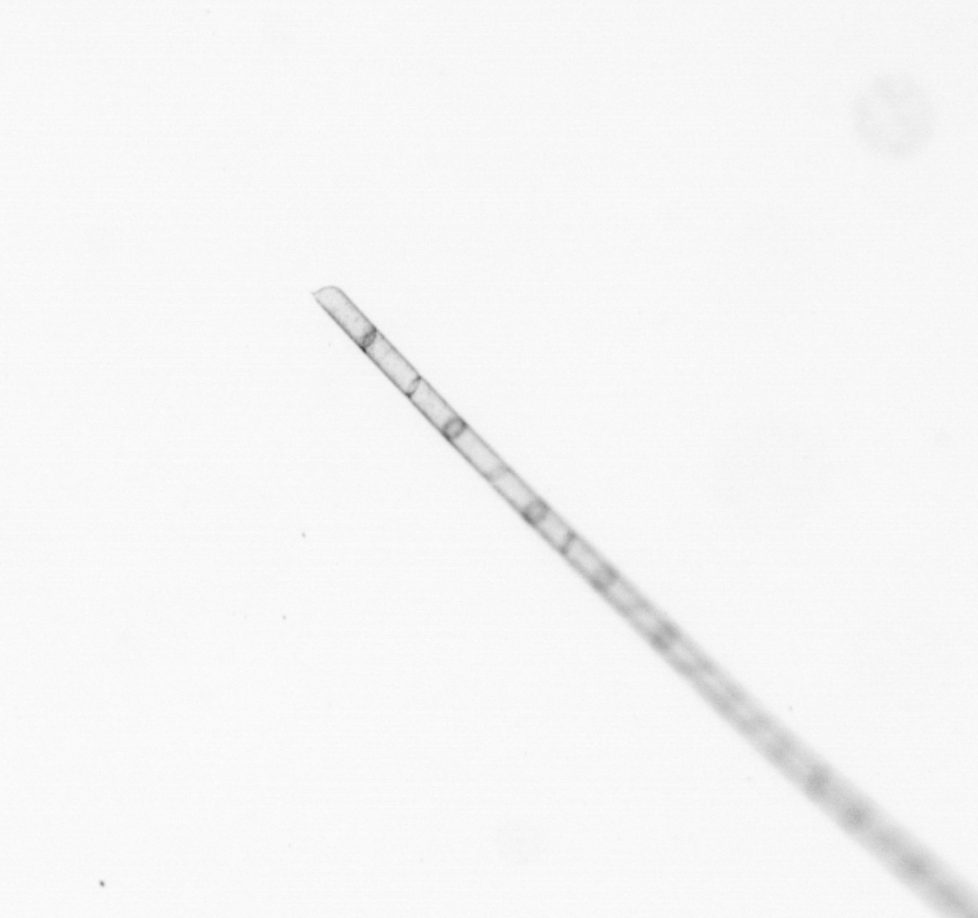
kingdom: Chromista
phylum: Ochrophyta
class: Bacillariophyceae
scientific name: Bacillariophyceae
